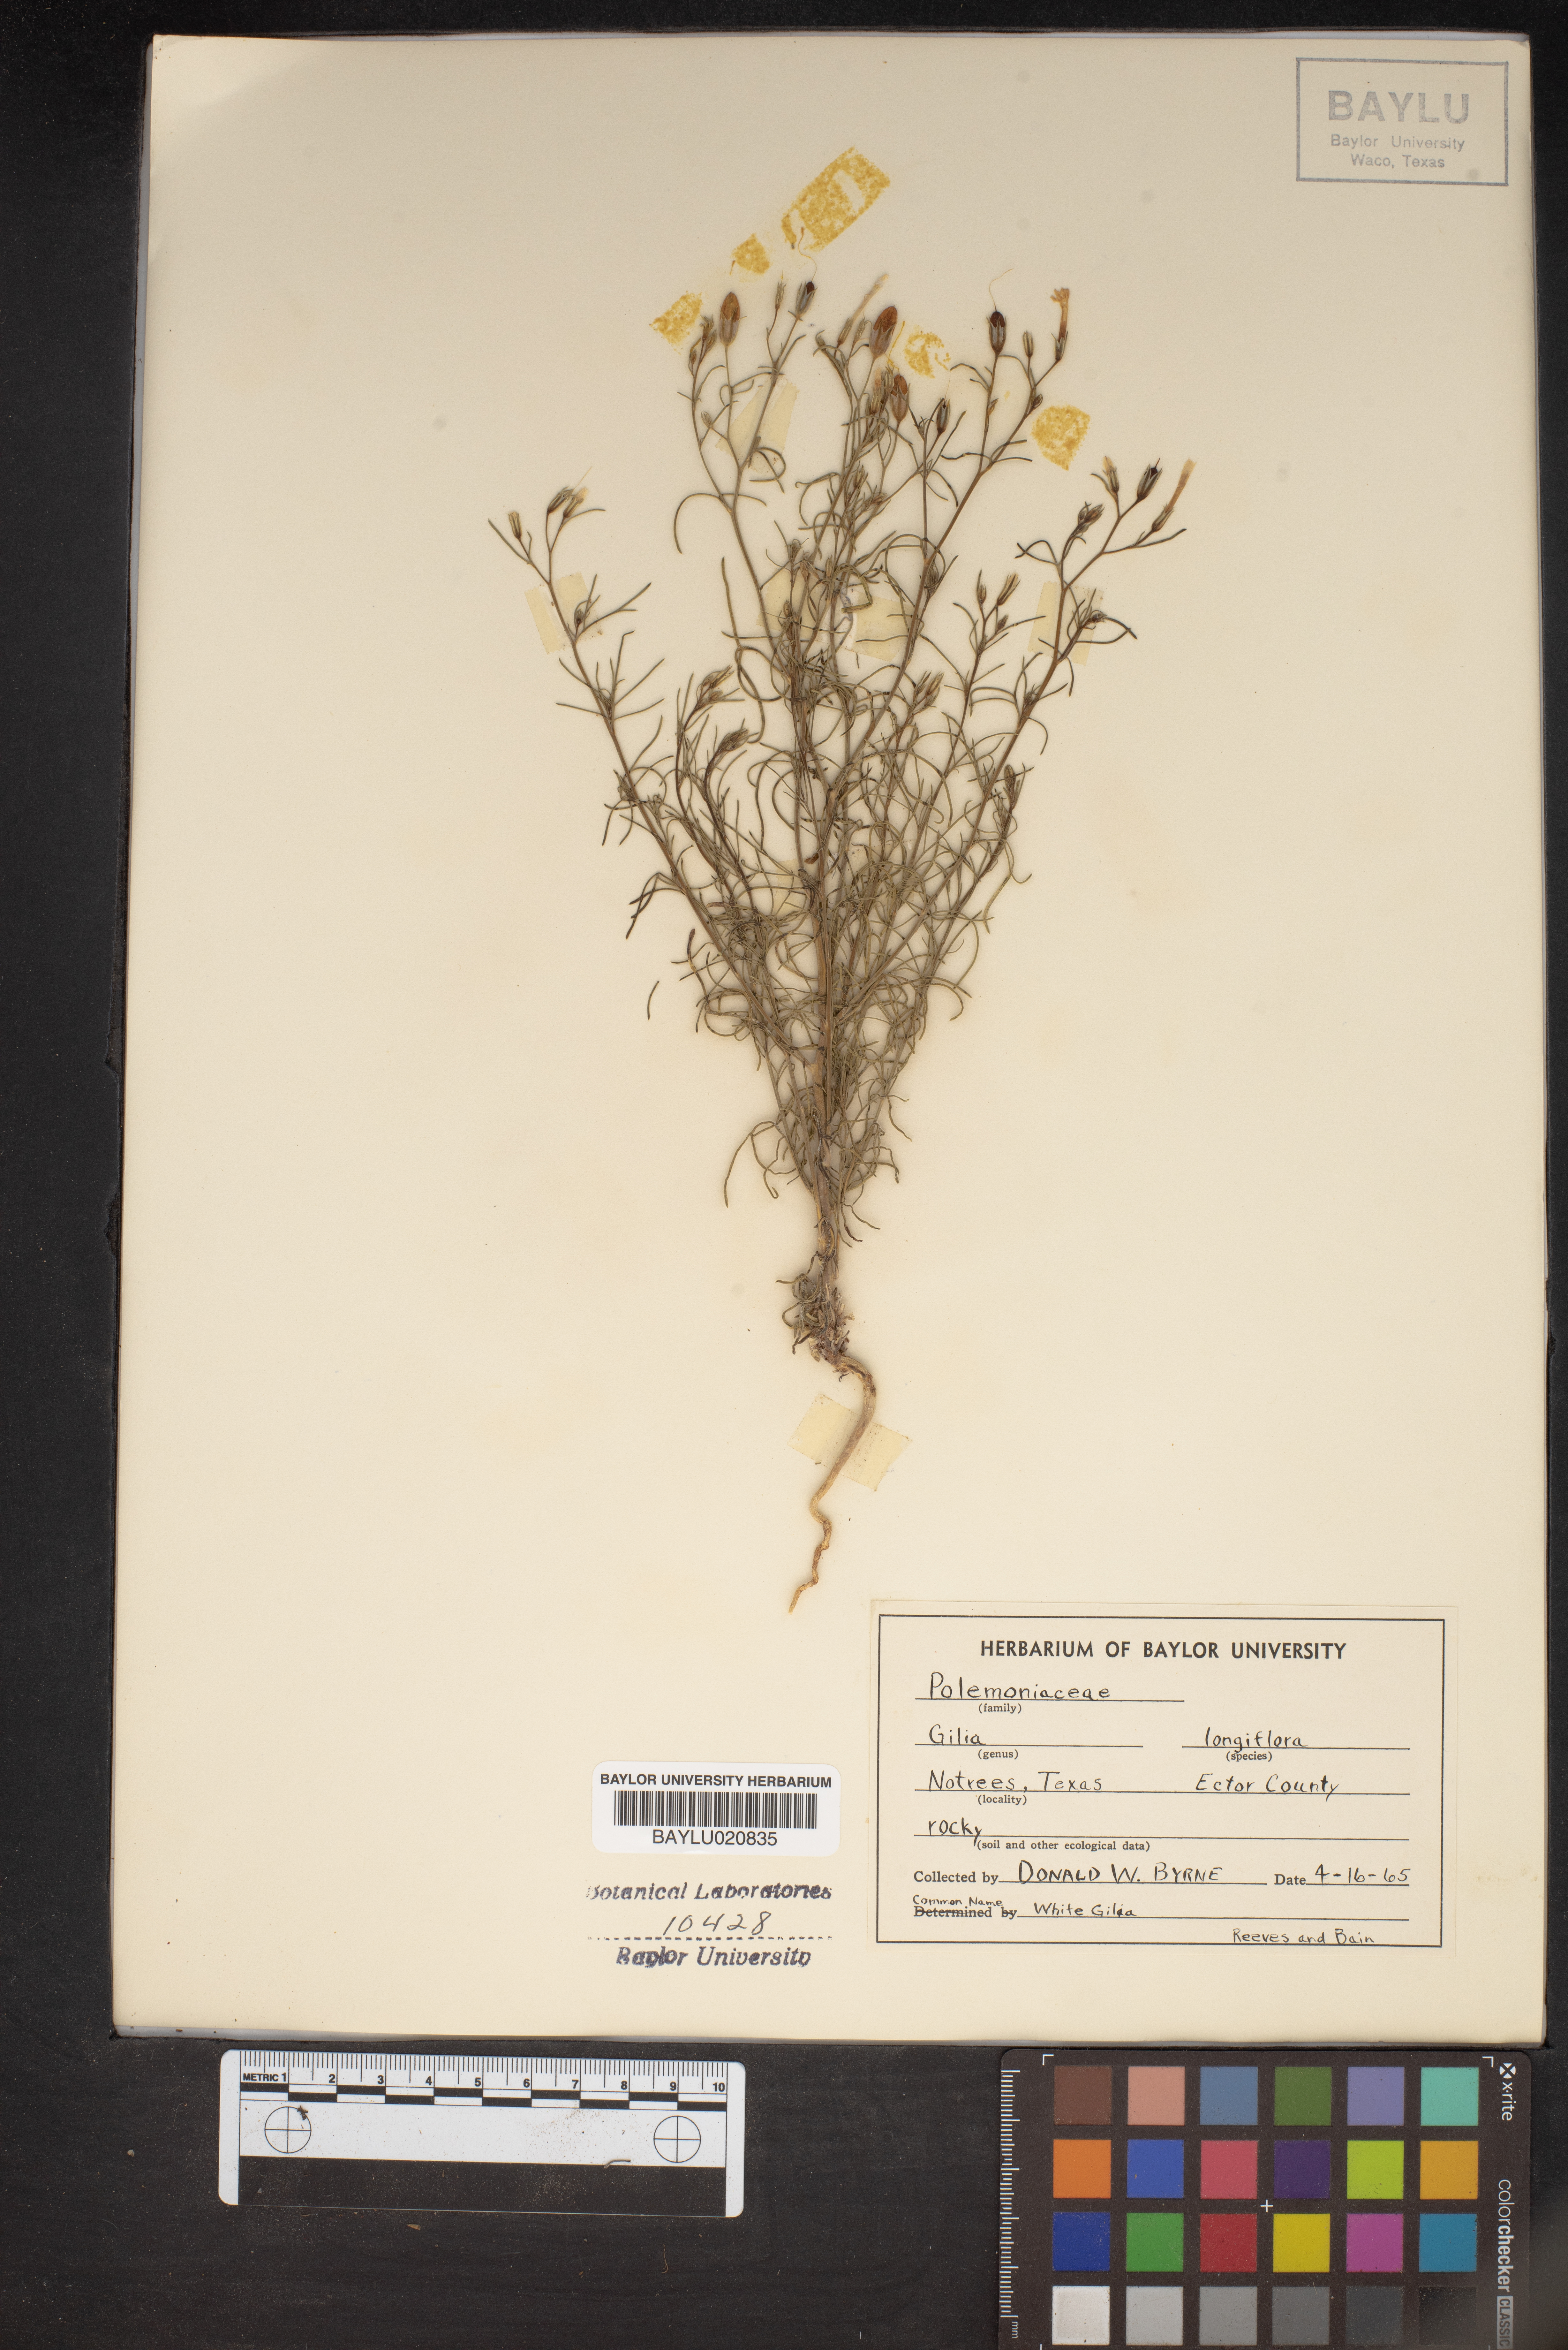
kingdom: Plantae
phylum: Tracheophyta
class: Magnoliopsida
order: Ericales
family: Polemoniaceae
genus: Ipomopsis
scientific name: Ipomopsis longiflora
